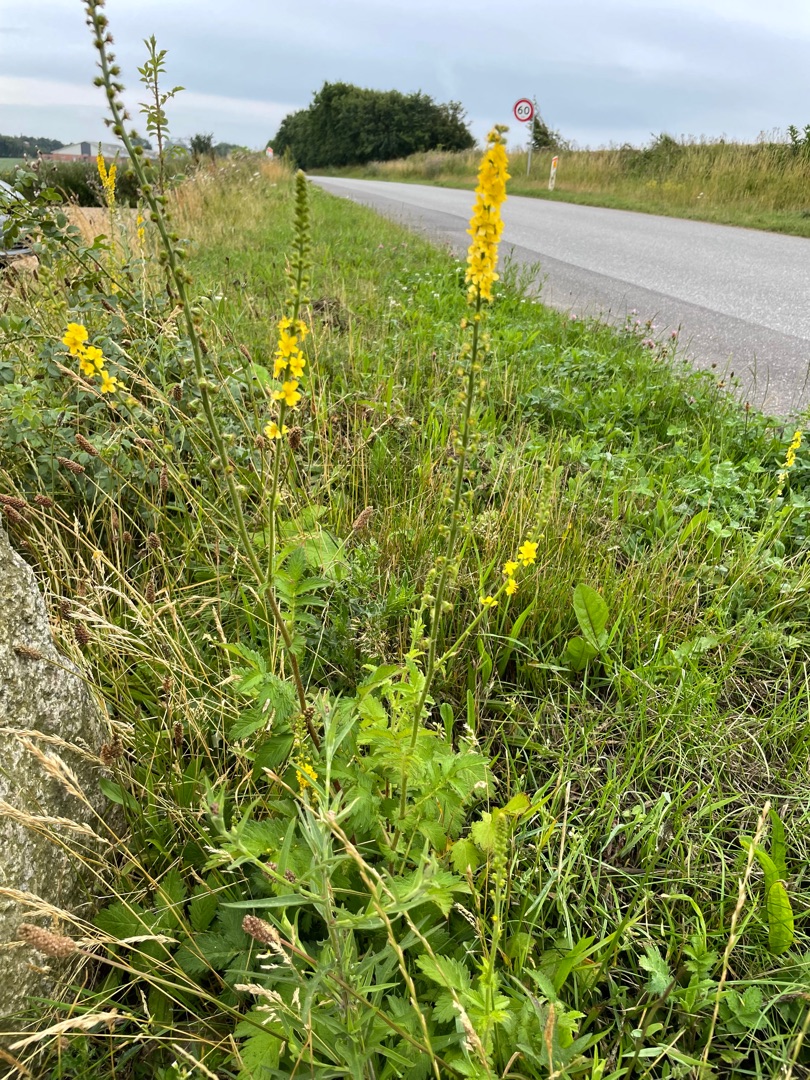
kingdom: Plantae
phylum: Tracheophyta
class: Magnoliopsida
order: Rosales
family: Rosaceae
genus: Agrimonia
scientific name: Agrimonia eupatoria
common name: Almindelig agermåne
